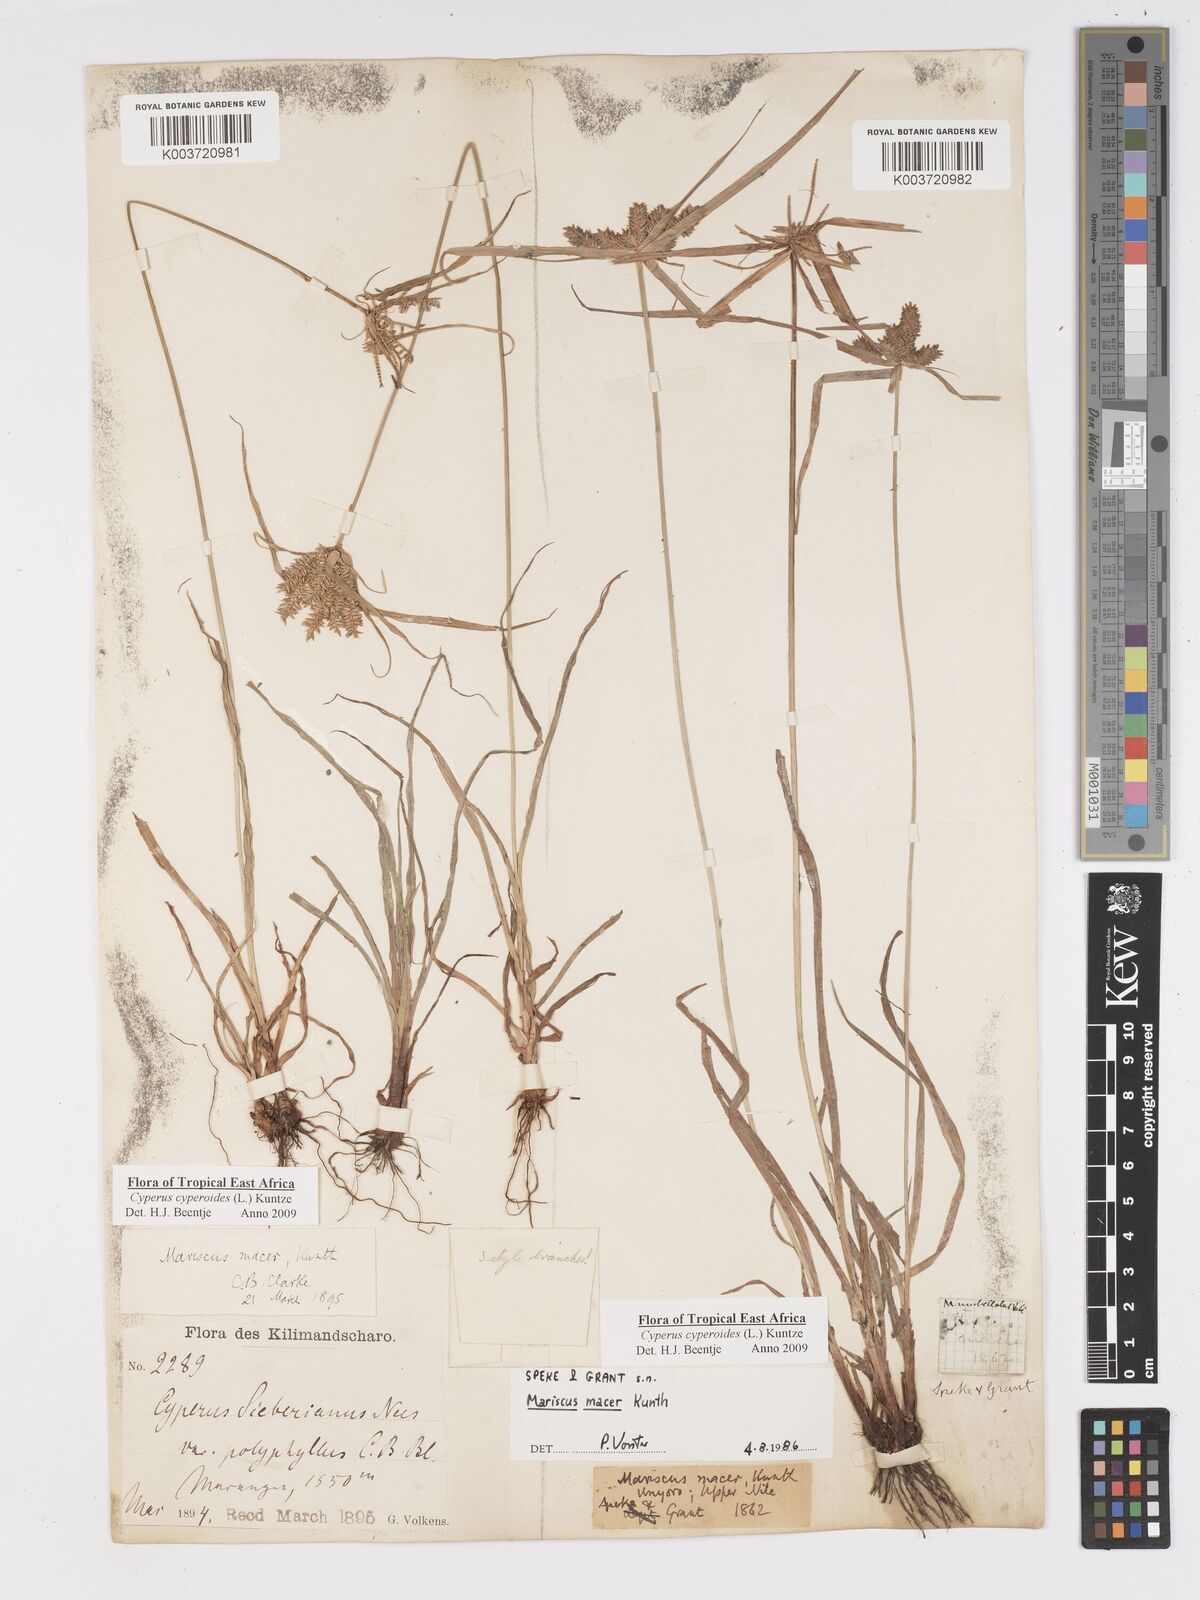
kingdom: Plantae
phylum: Tracheophyta
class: Liliopsida
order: Poales
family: Cyperaceae
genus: Cyperus
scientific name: Cyperus pseudoflavus
